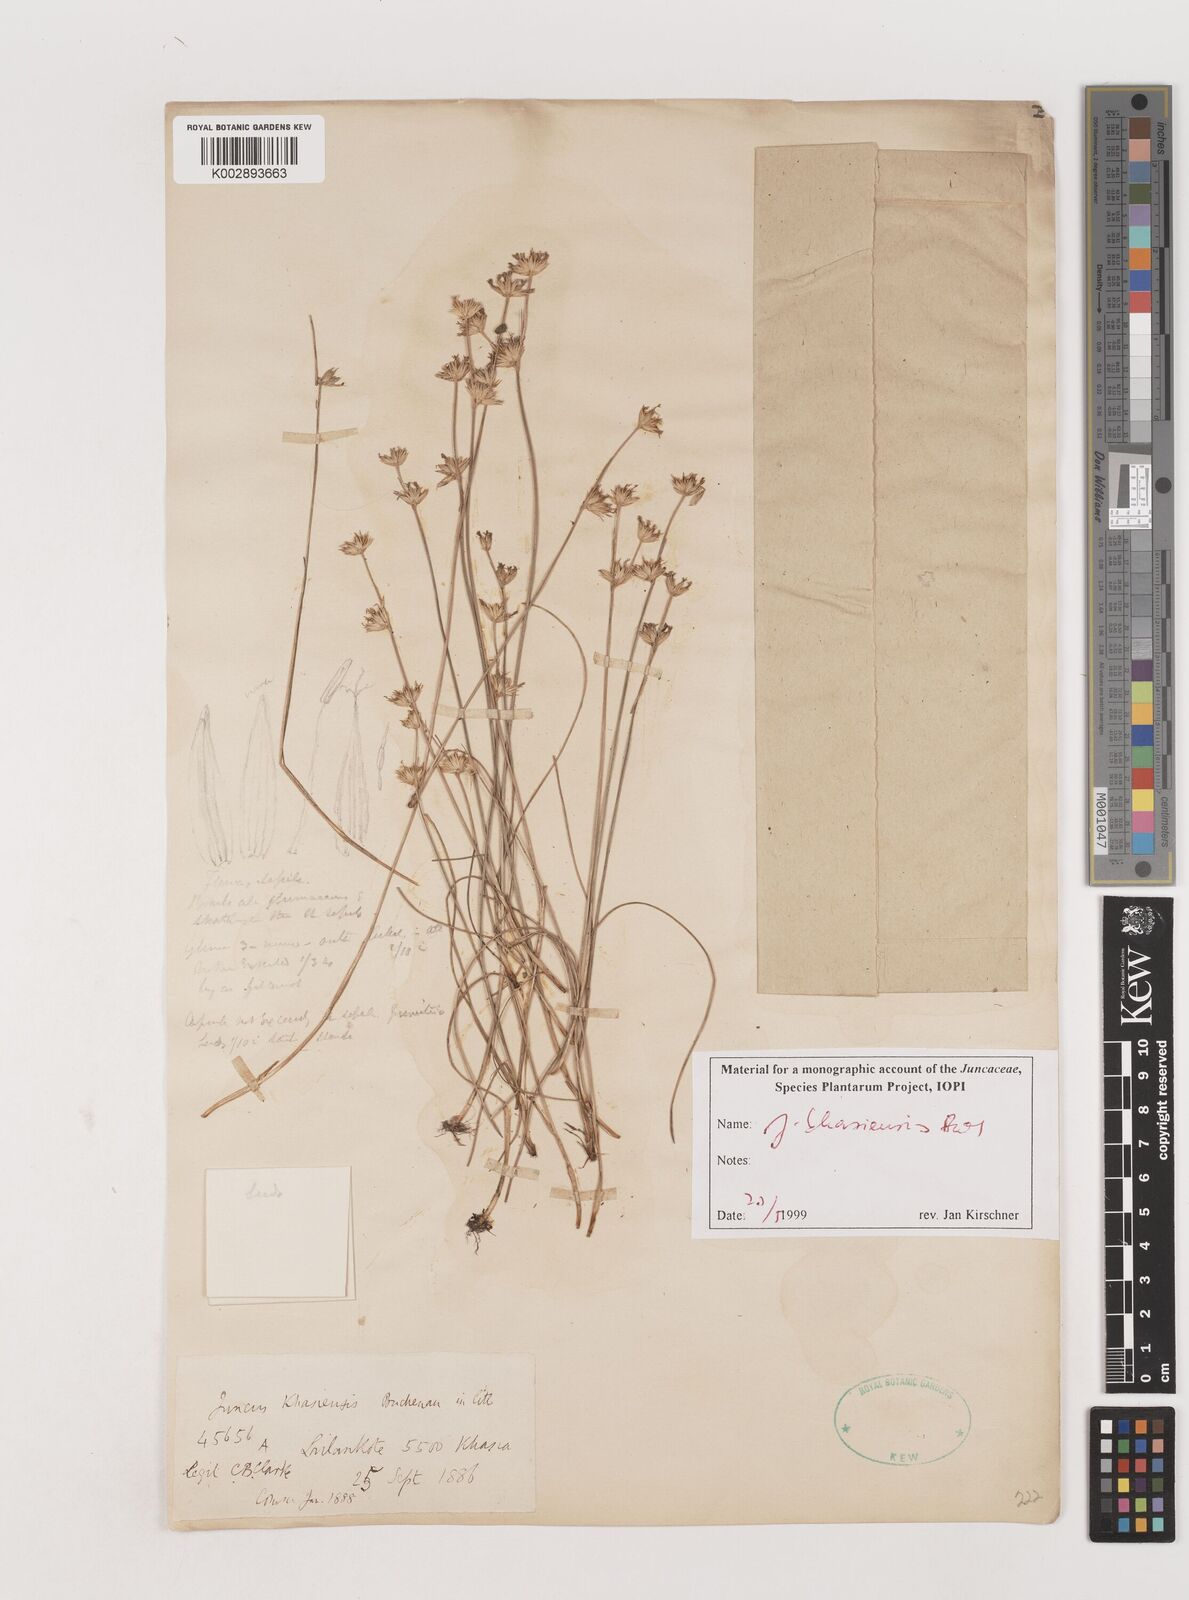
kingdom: Plantae
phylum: Tracheophyta
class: Liliopsida
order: Poales
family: Juncaceae
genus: Juncus
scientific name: Juncus khasiensis
